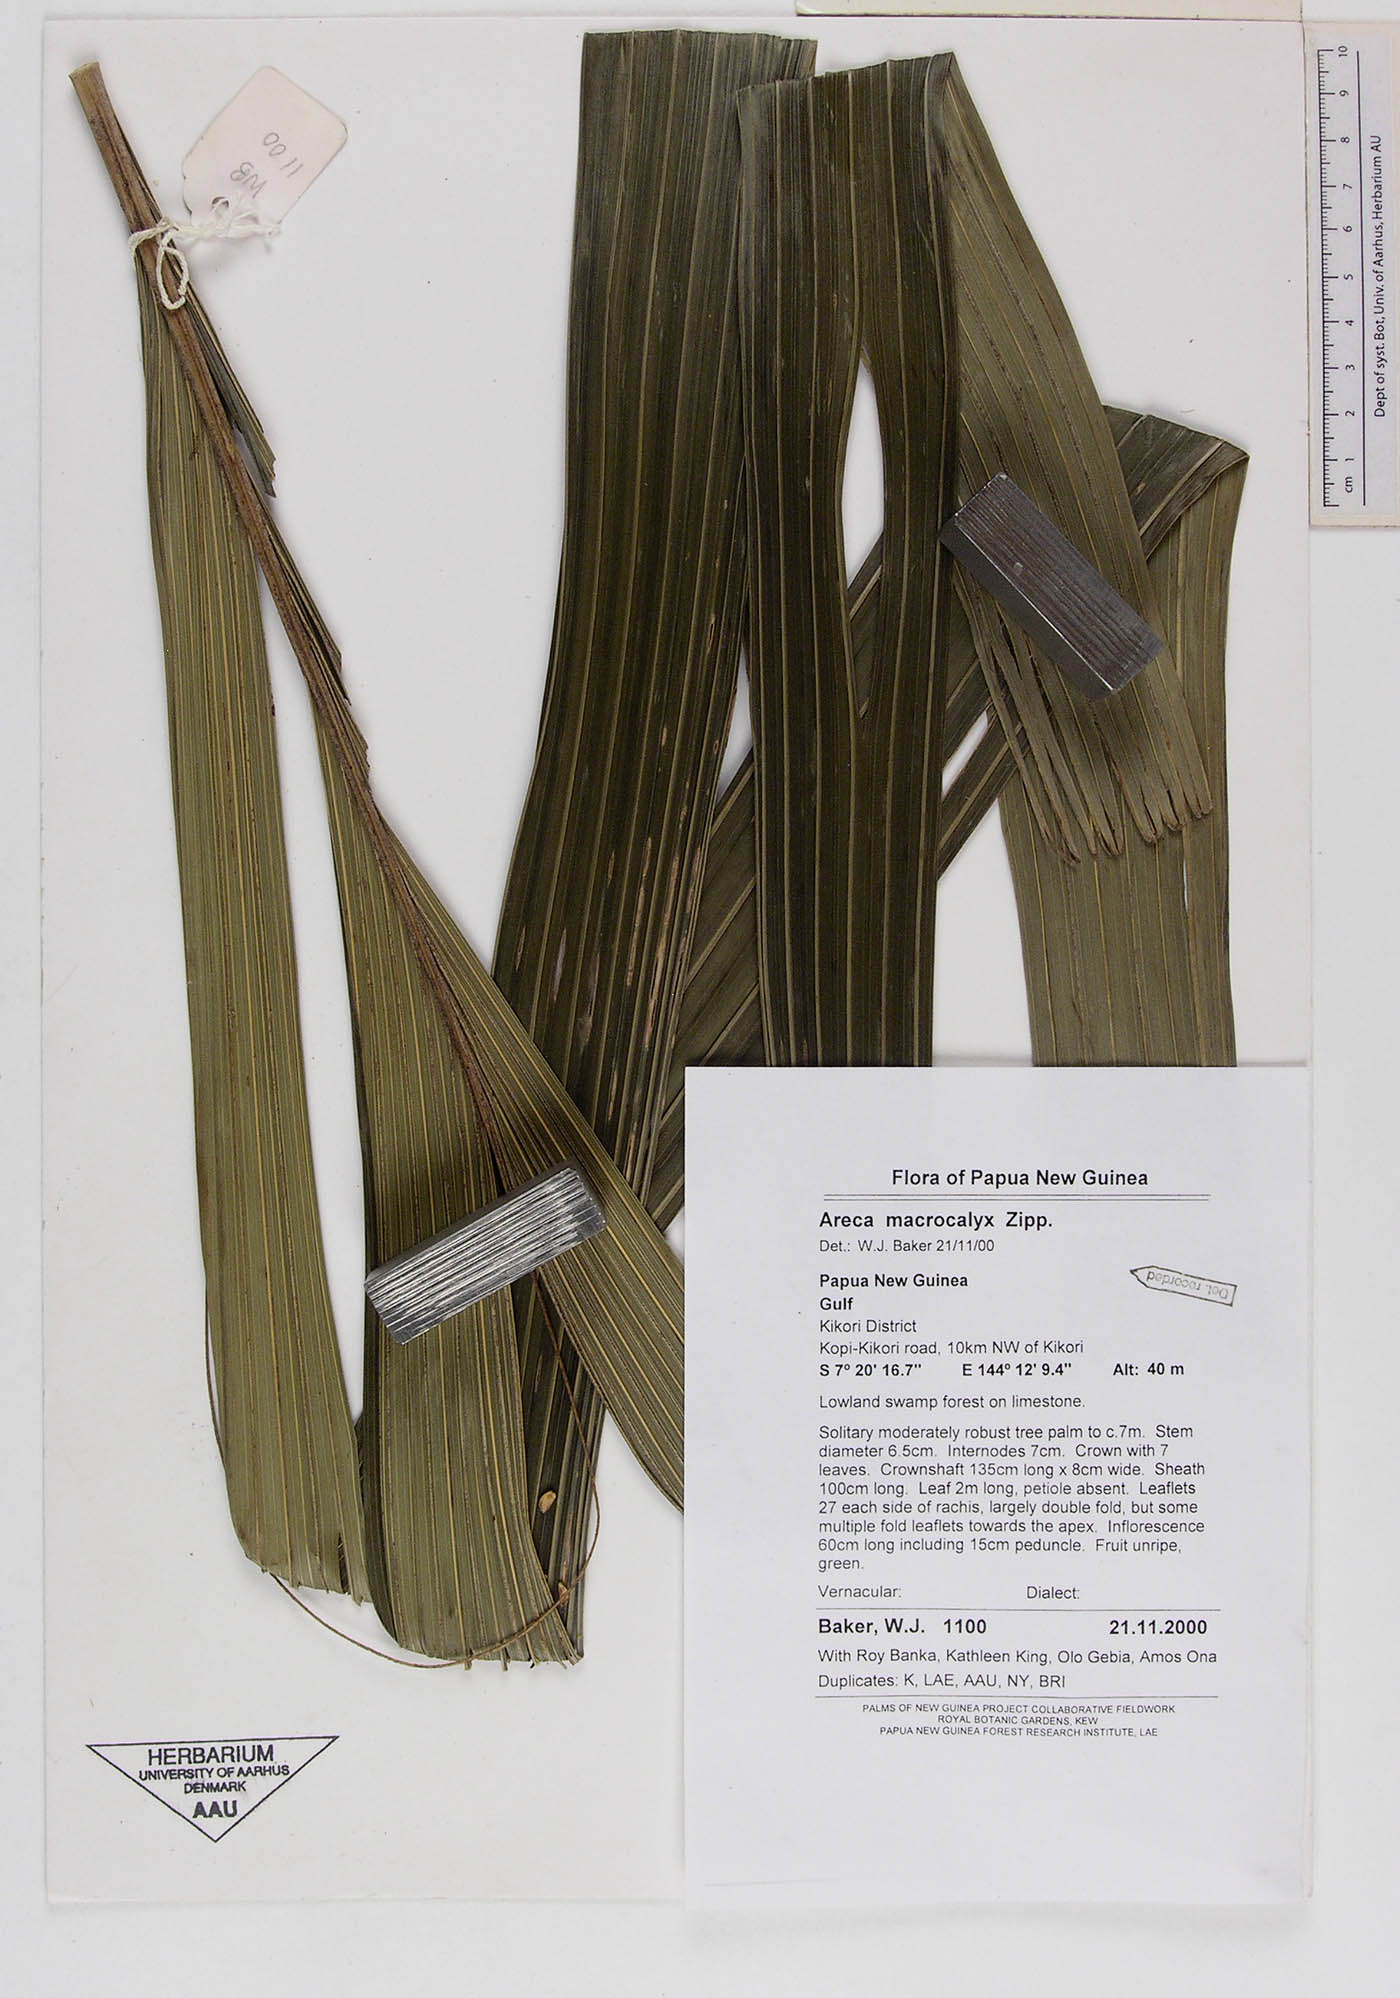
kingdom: Plantae
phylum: Tracheophyta
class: Liliopsida
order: Arecales
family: Arecaceae
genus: Areca
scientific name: Areca macrocalyx
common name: Highland betel-nut palm
